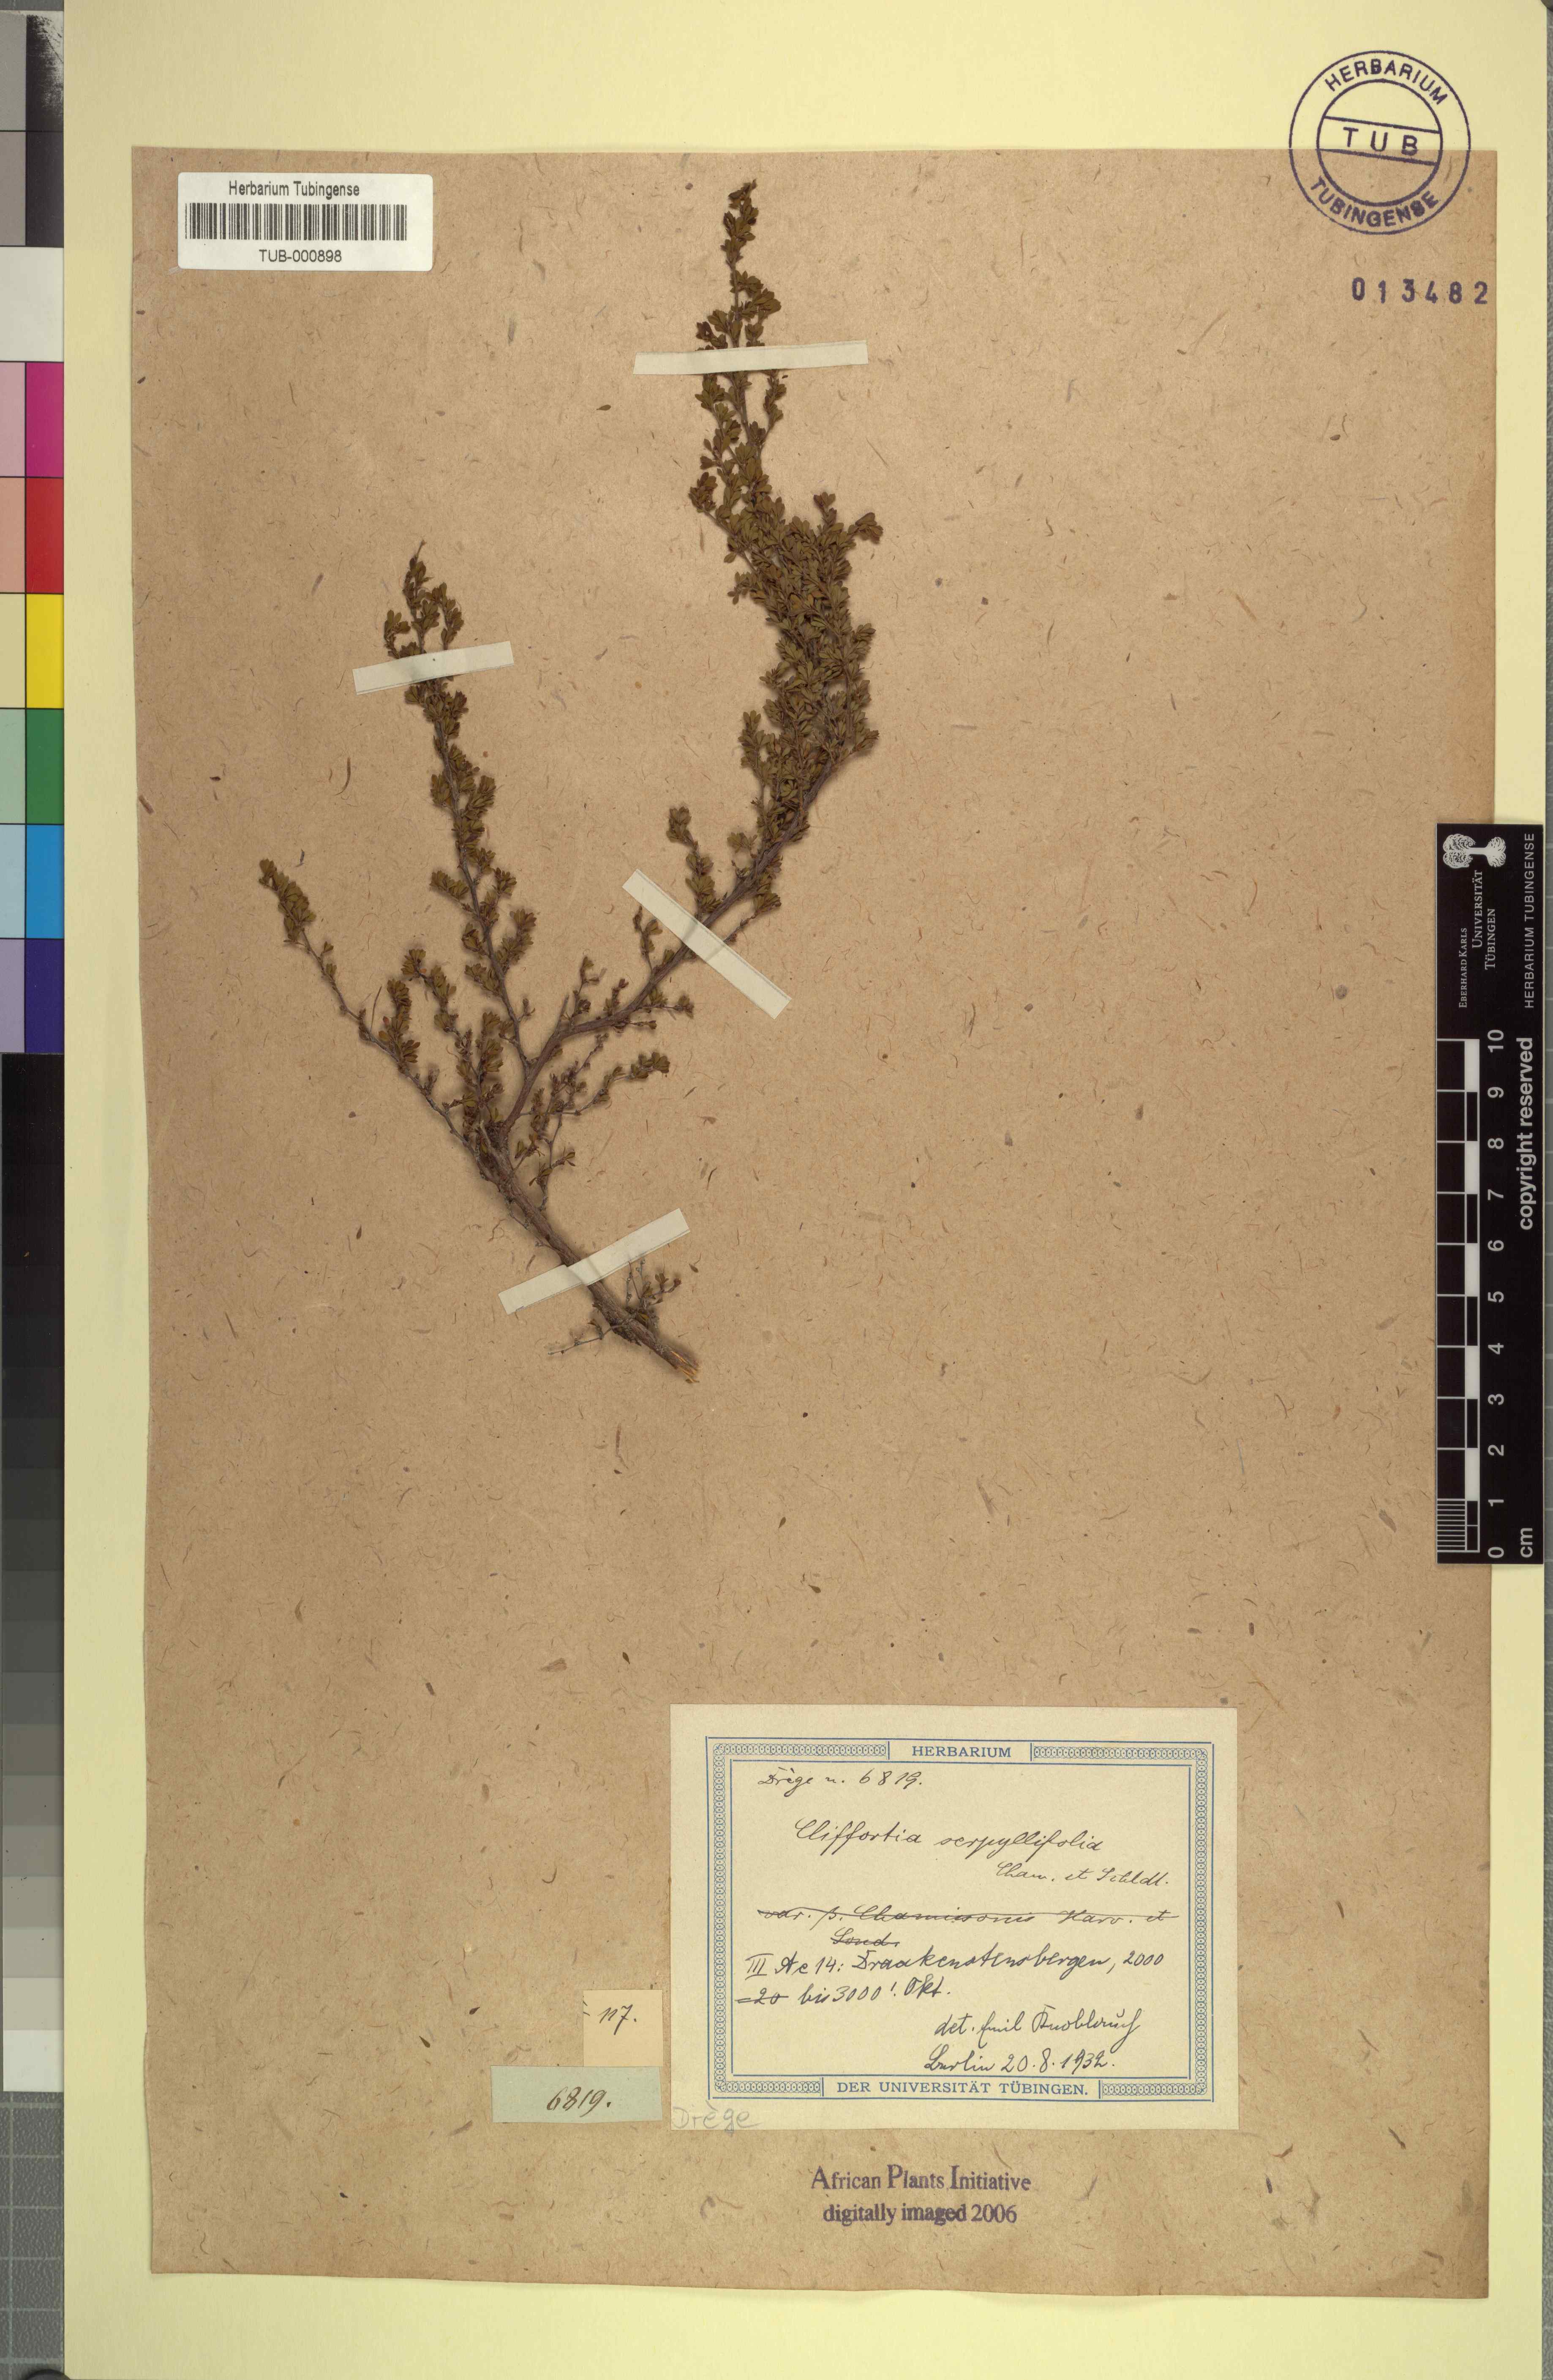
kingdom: Plantae
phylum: Tracheophyta
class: Magnoliopsida
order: Rosales
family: Rosaceae
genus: Cliffortia
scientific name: Cliffortia serpyllifolia
